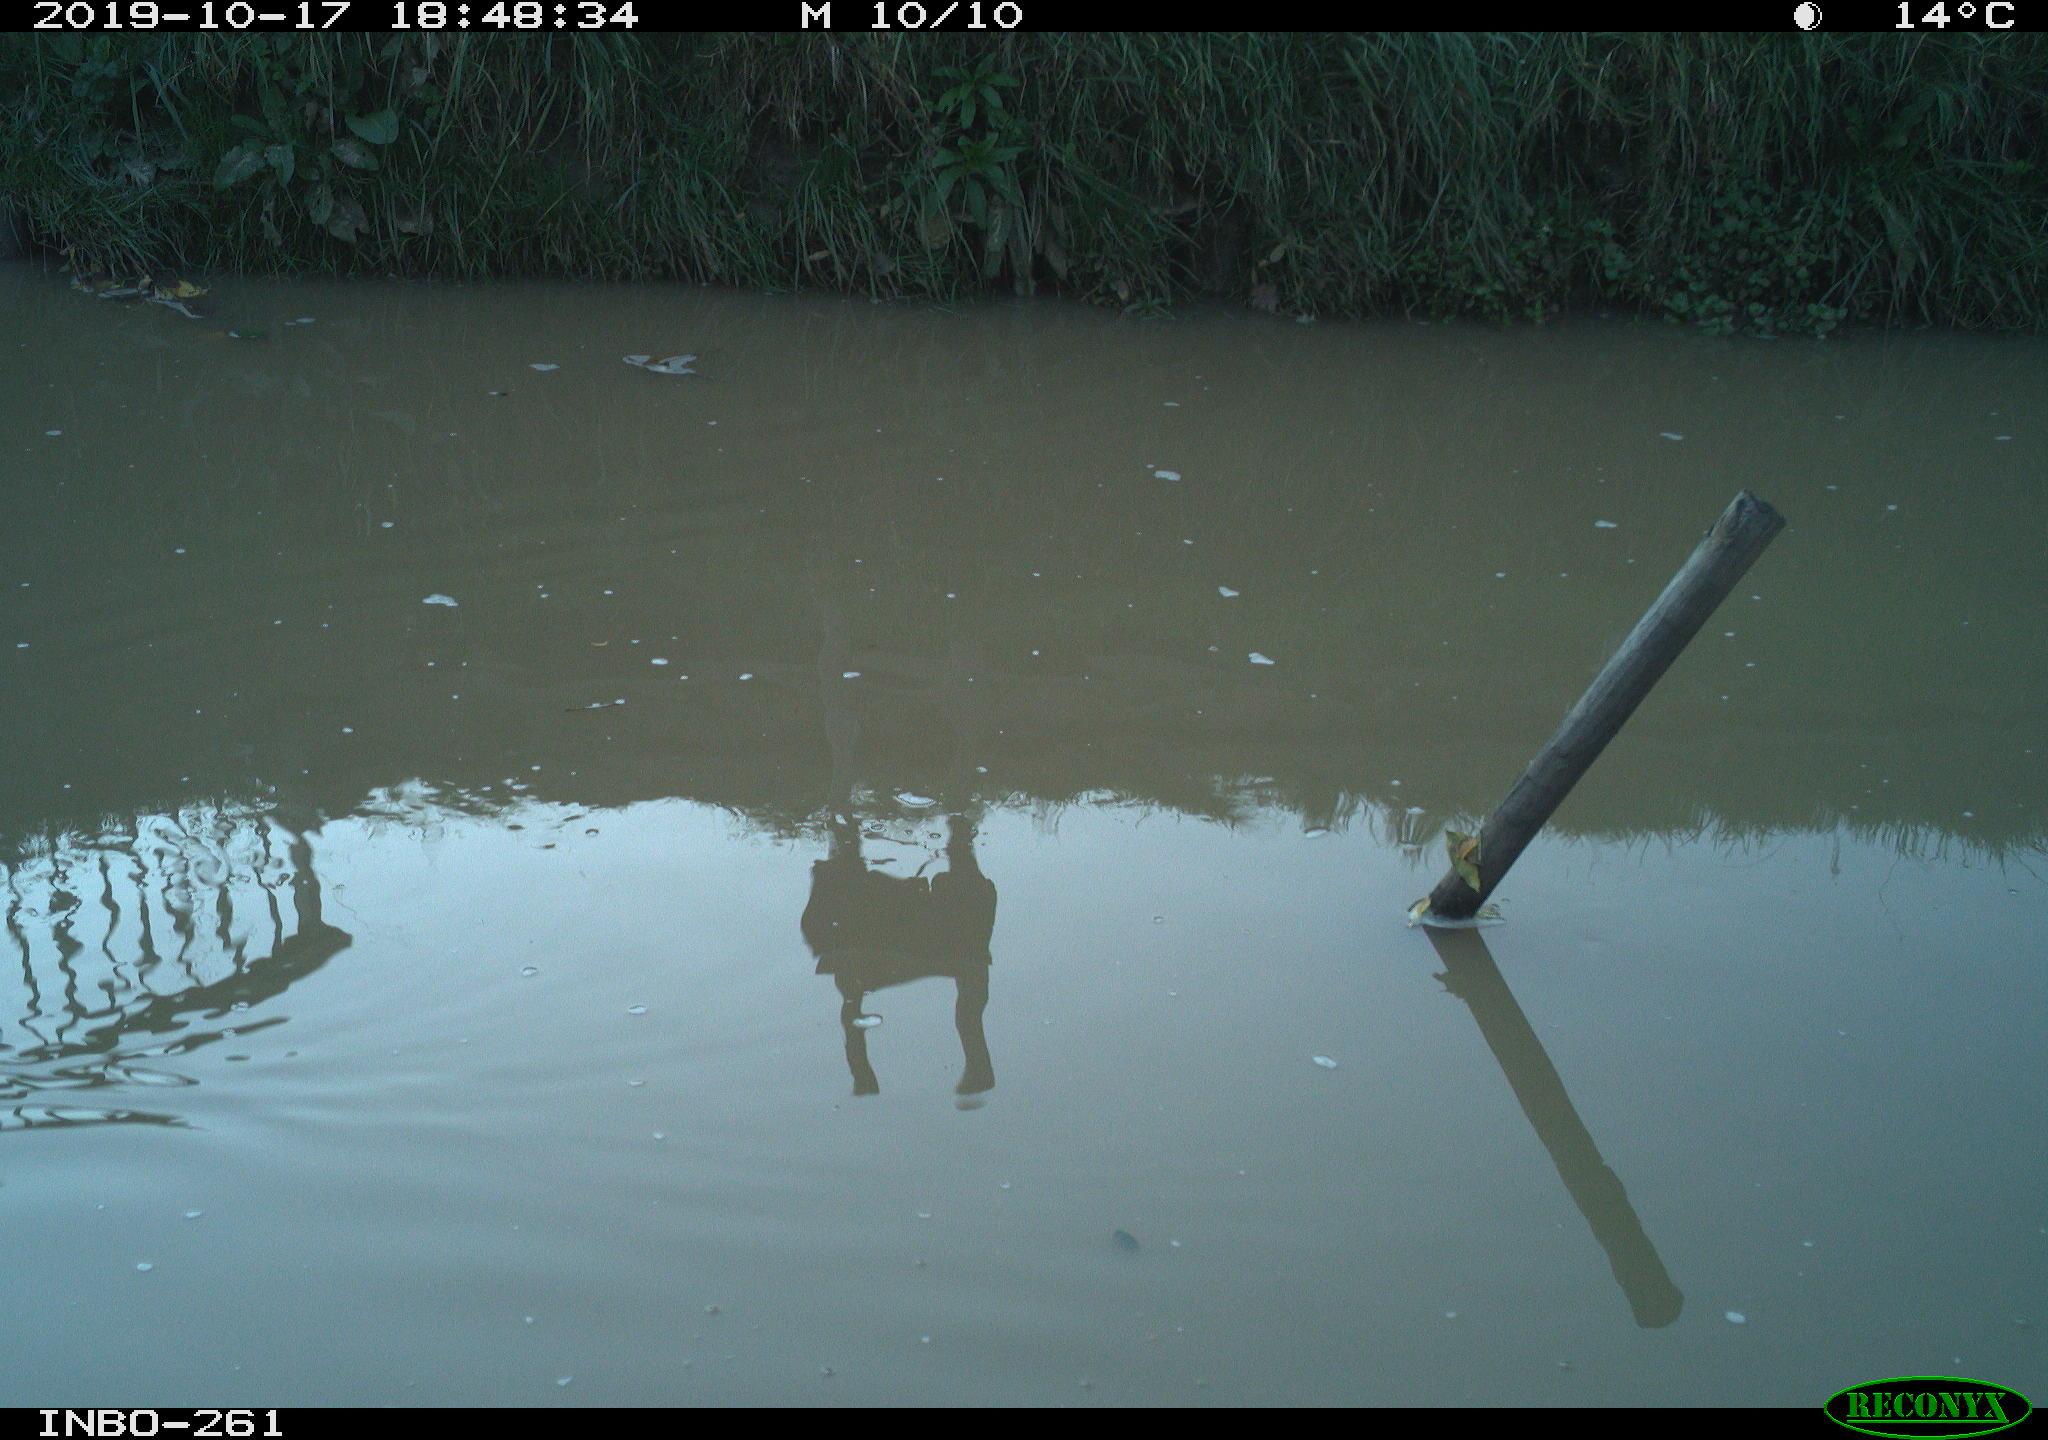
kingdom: Animalia
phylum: Chordata
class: Aves
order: Gruiformes
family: Rallidae
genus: Gallinula
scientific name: Gallinula chloropus
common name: Common moorhen
